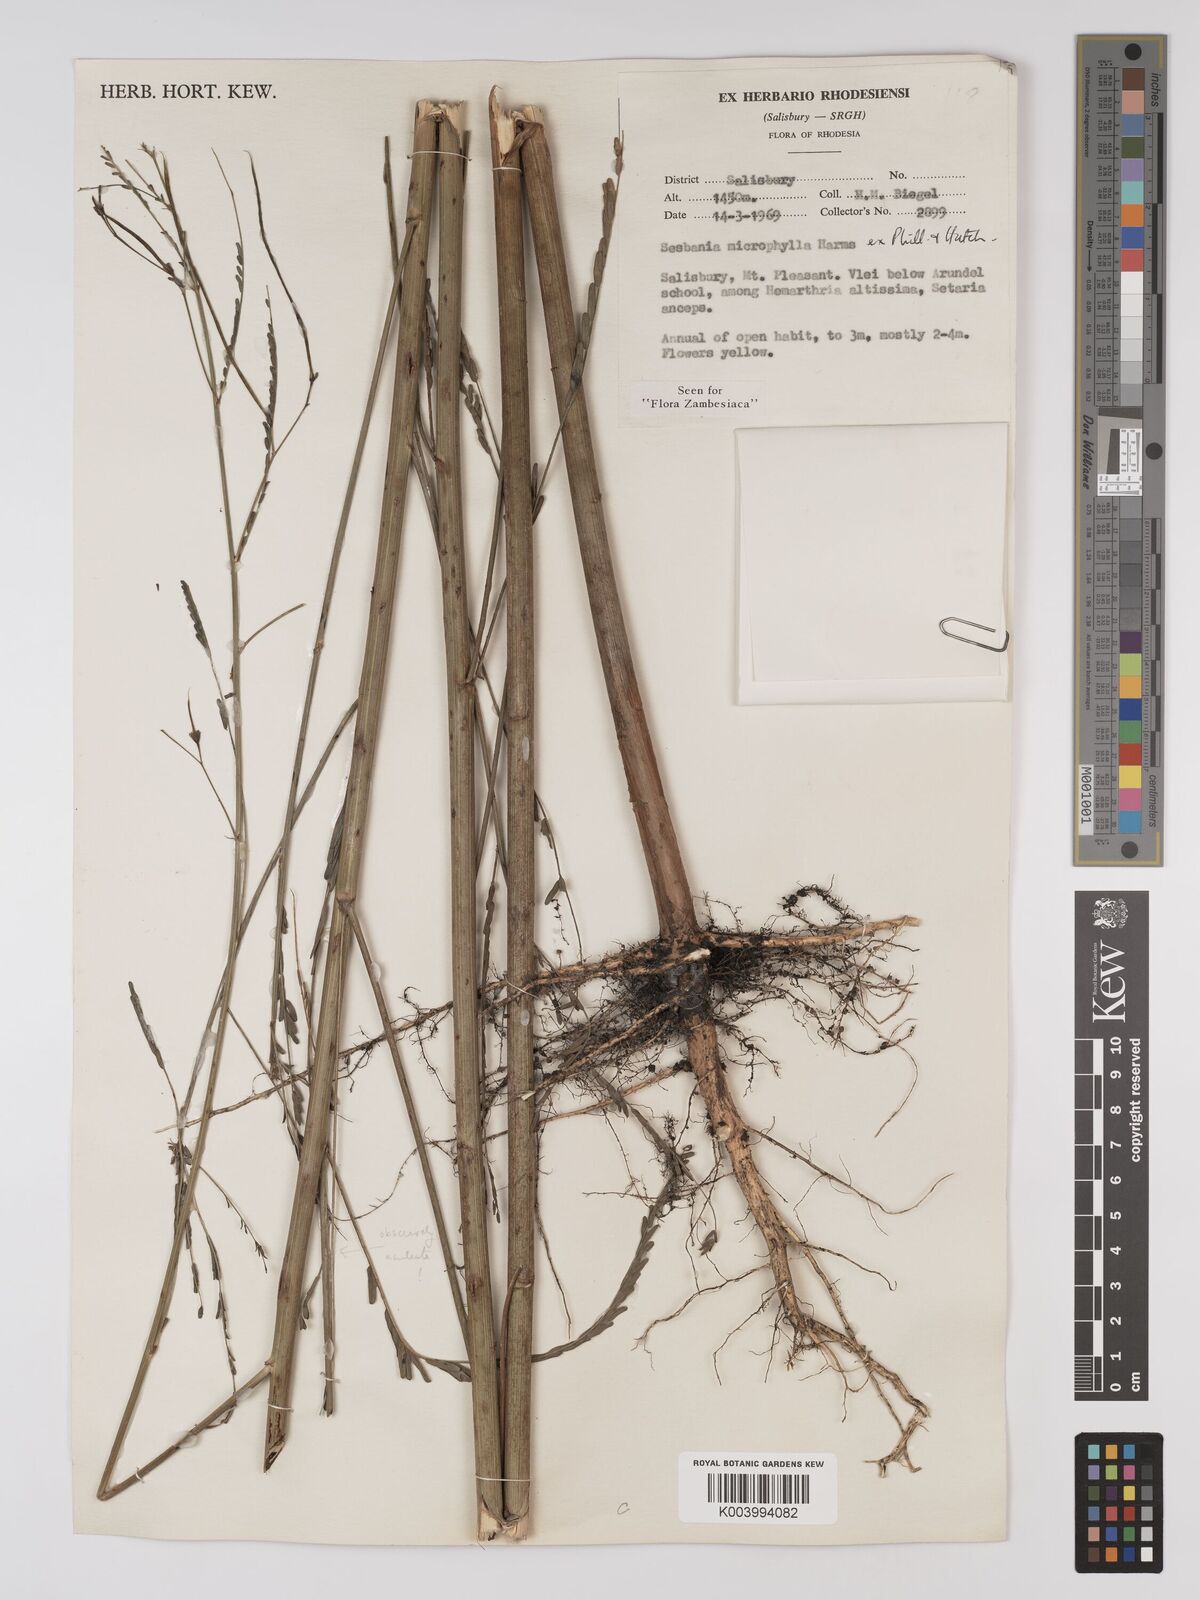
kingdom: Plantae
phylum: Tracheophyta
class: Magnoliopsida
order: Fabales
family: Fabaceae
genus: Sesbania
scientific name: Sesbania microphylla
